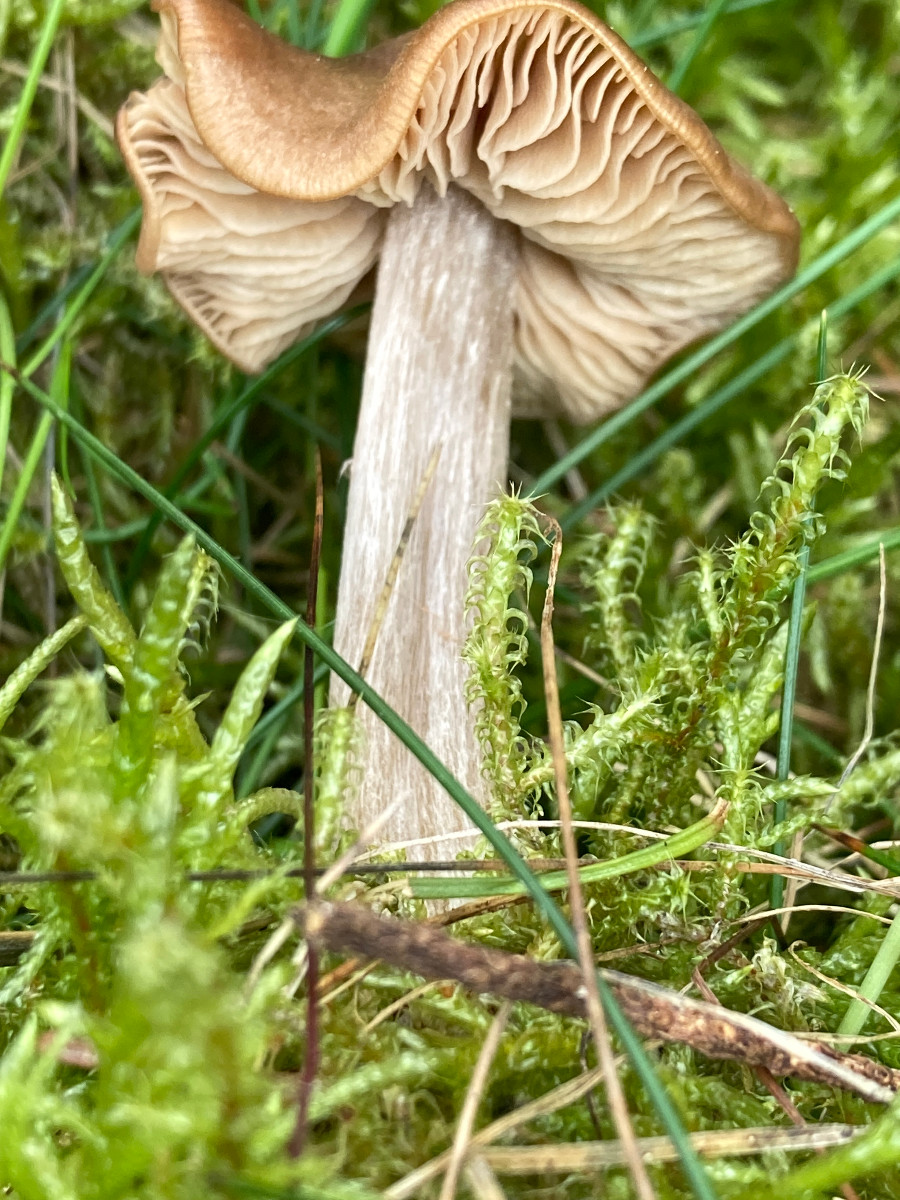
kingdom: Fungi
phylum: Basidiomycota
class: Agaricomycetes
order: Agaricales
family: Entolomataceae
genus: Entoloma
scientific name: Entoloma
